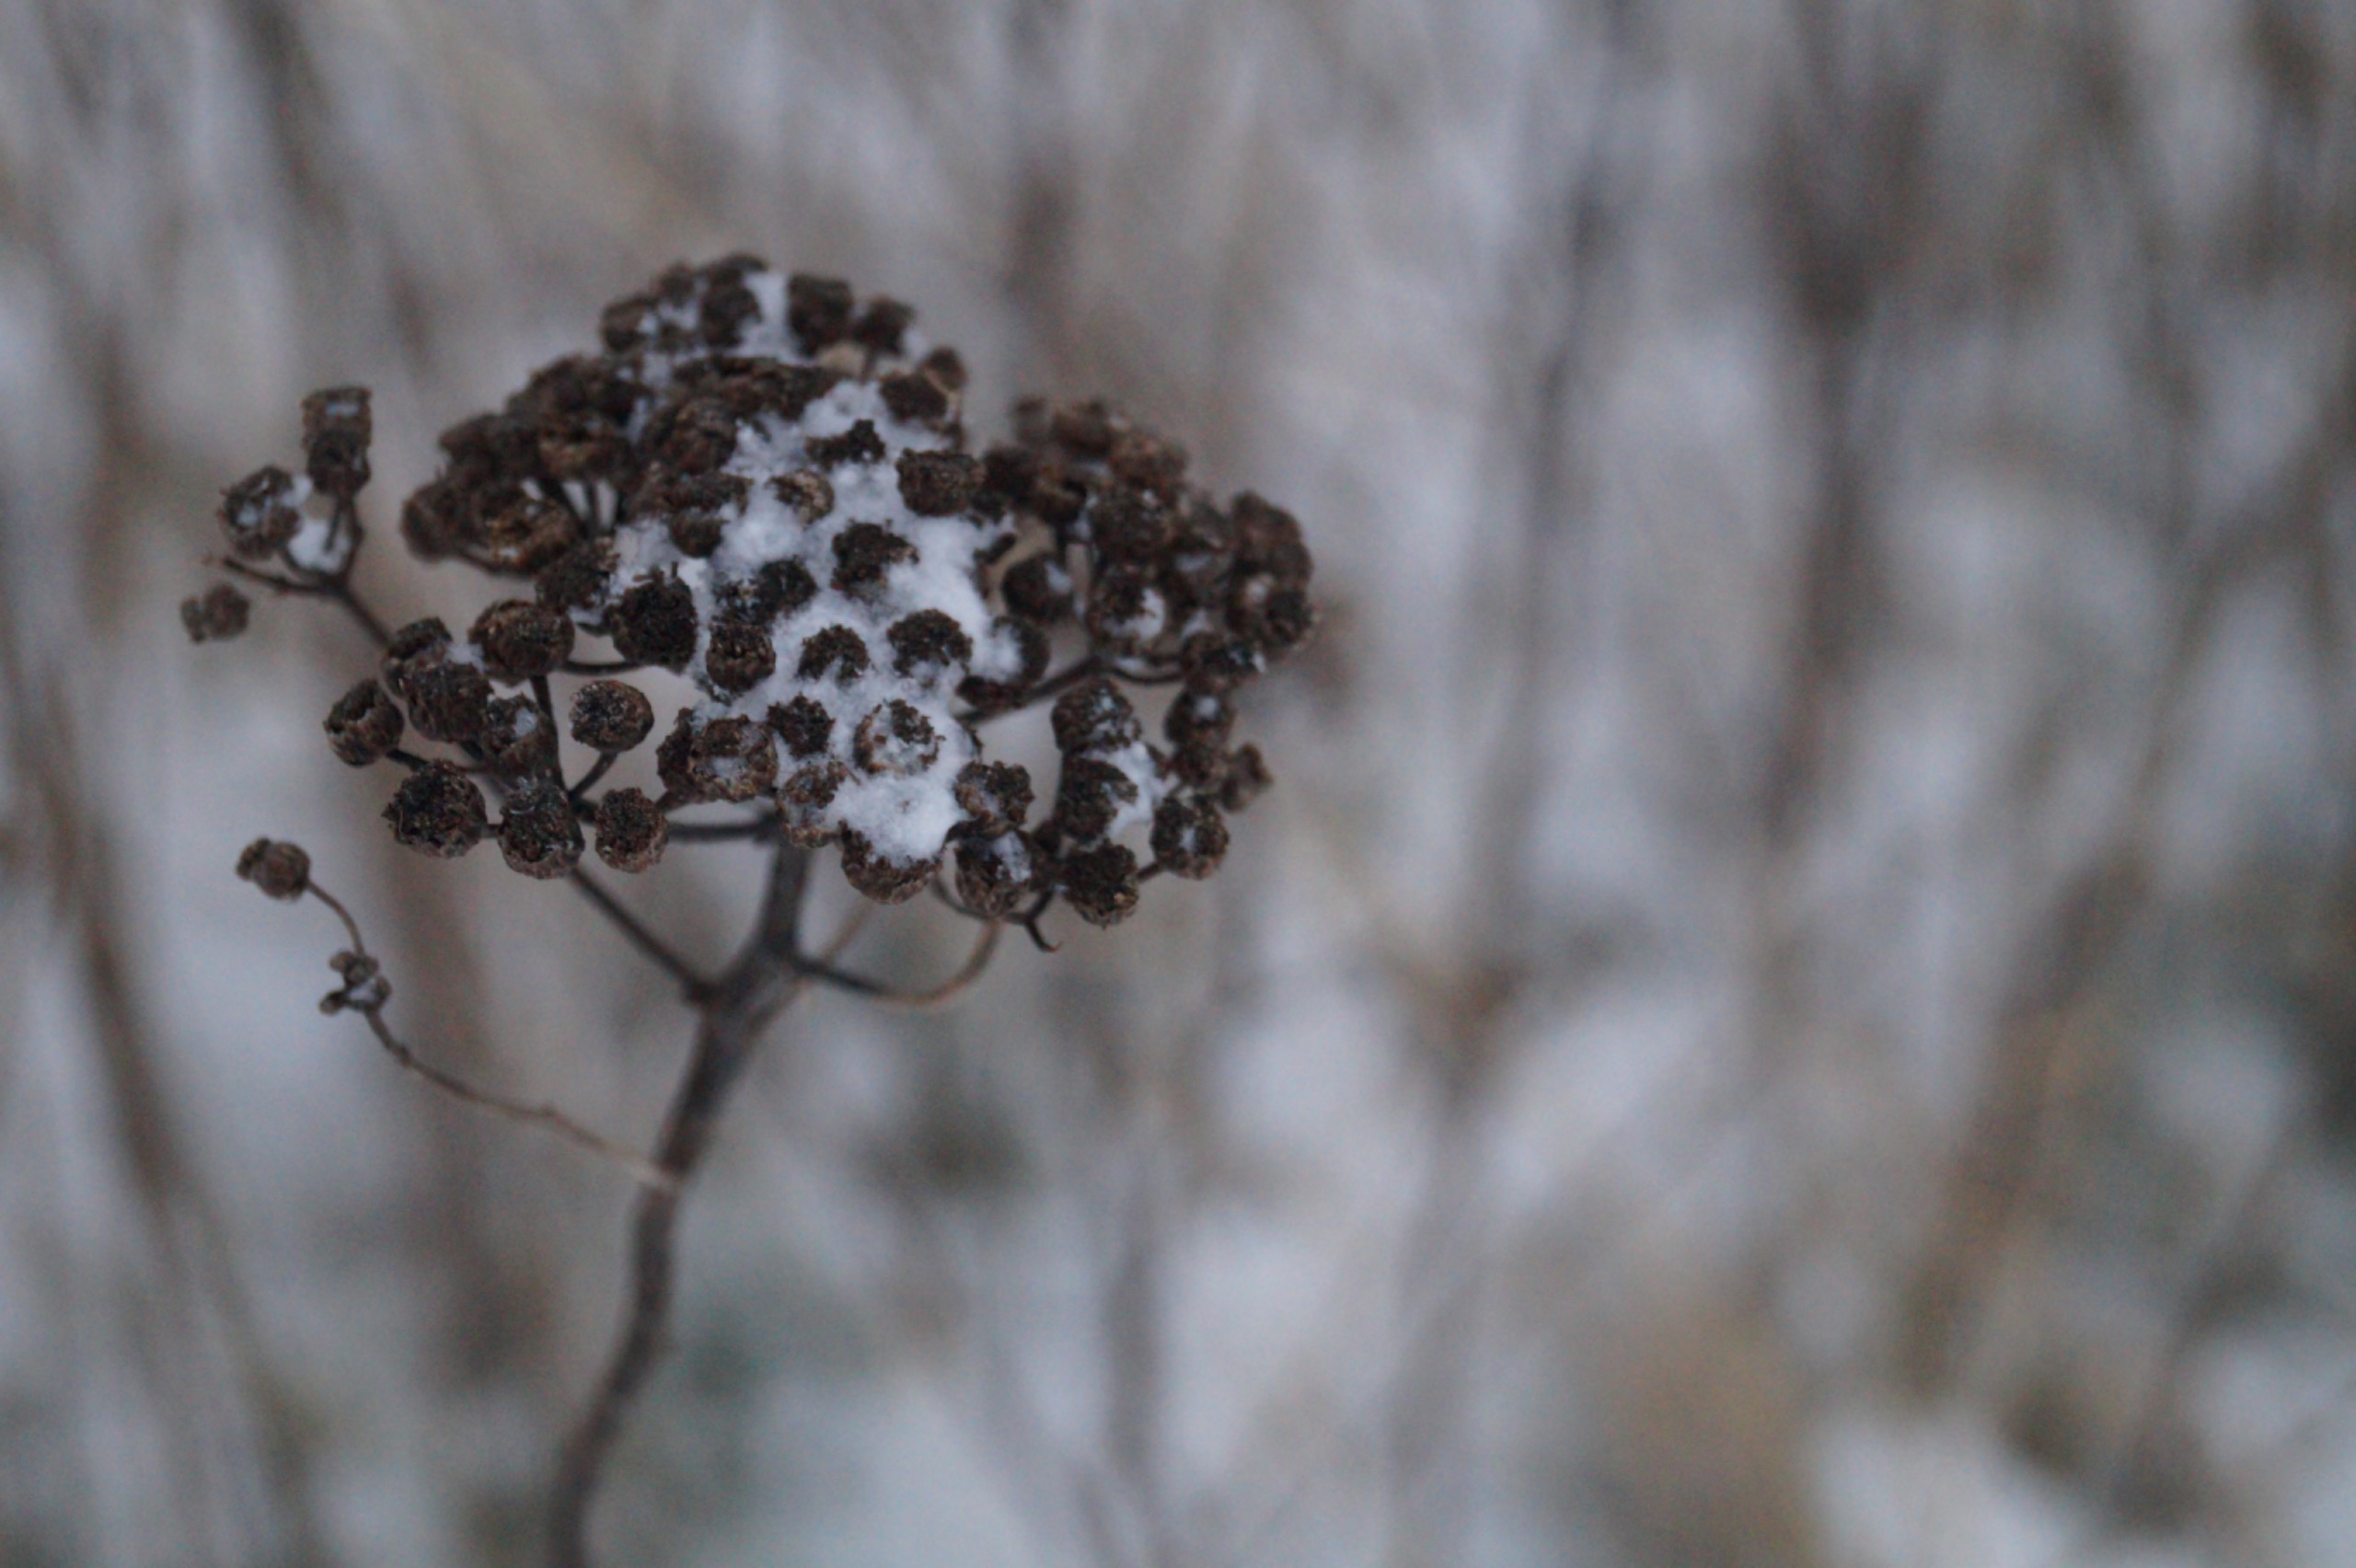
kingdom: Plantae
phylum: Tracheophyta
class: Magnoliopsida
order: Asterales
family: Asteraceae
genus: Tanacetum
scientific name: Tanacetum vulgare
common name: Rejnfan
